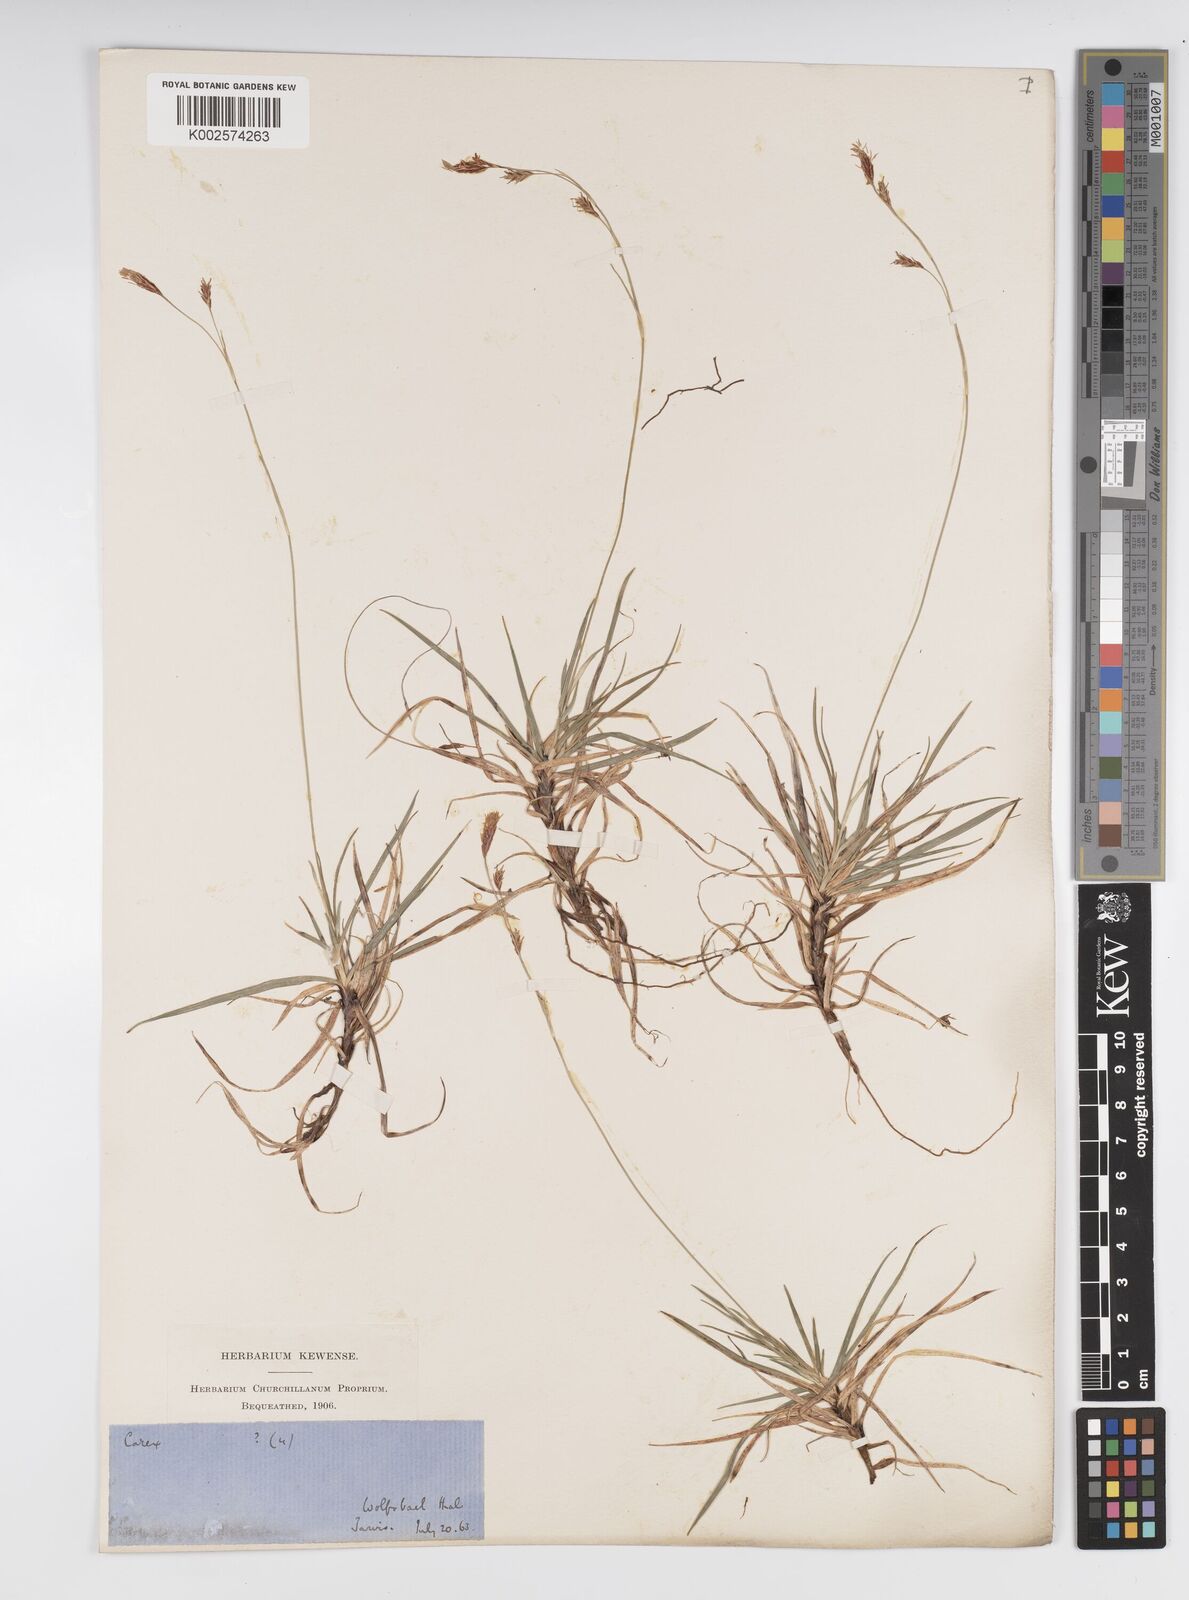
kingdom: Plantae
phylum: Tracheophyta
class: Liliopsida
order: Poales
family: Cyperaceae
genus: Carex
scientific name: Carex frigida
